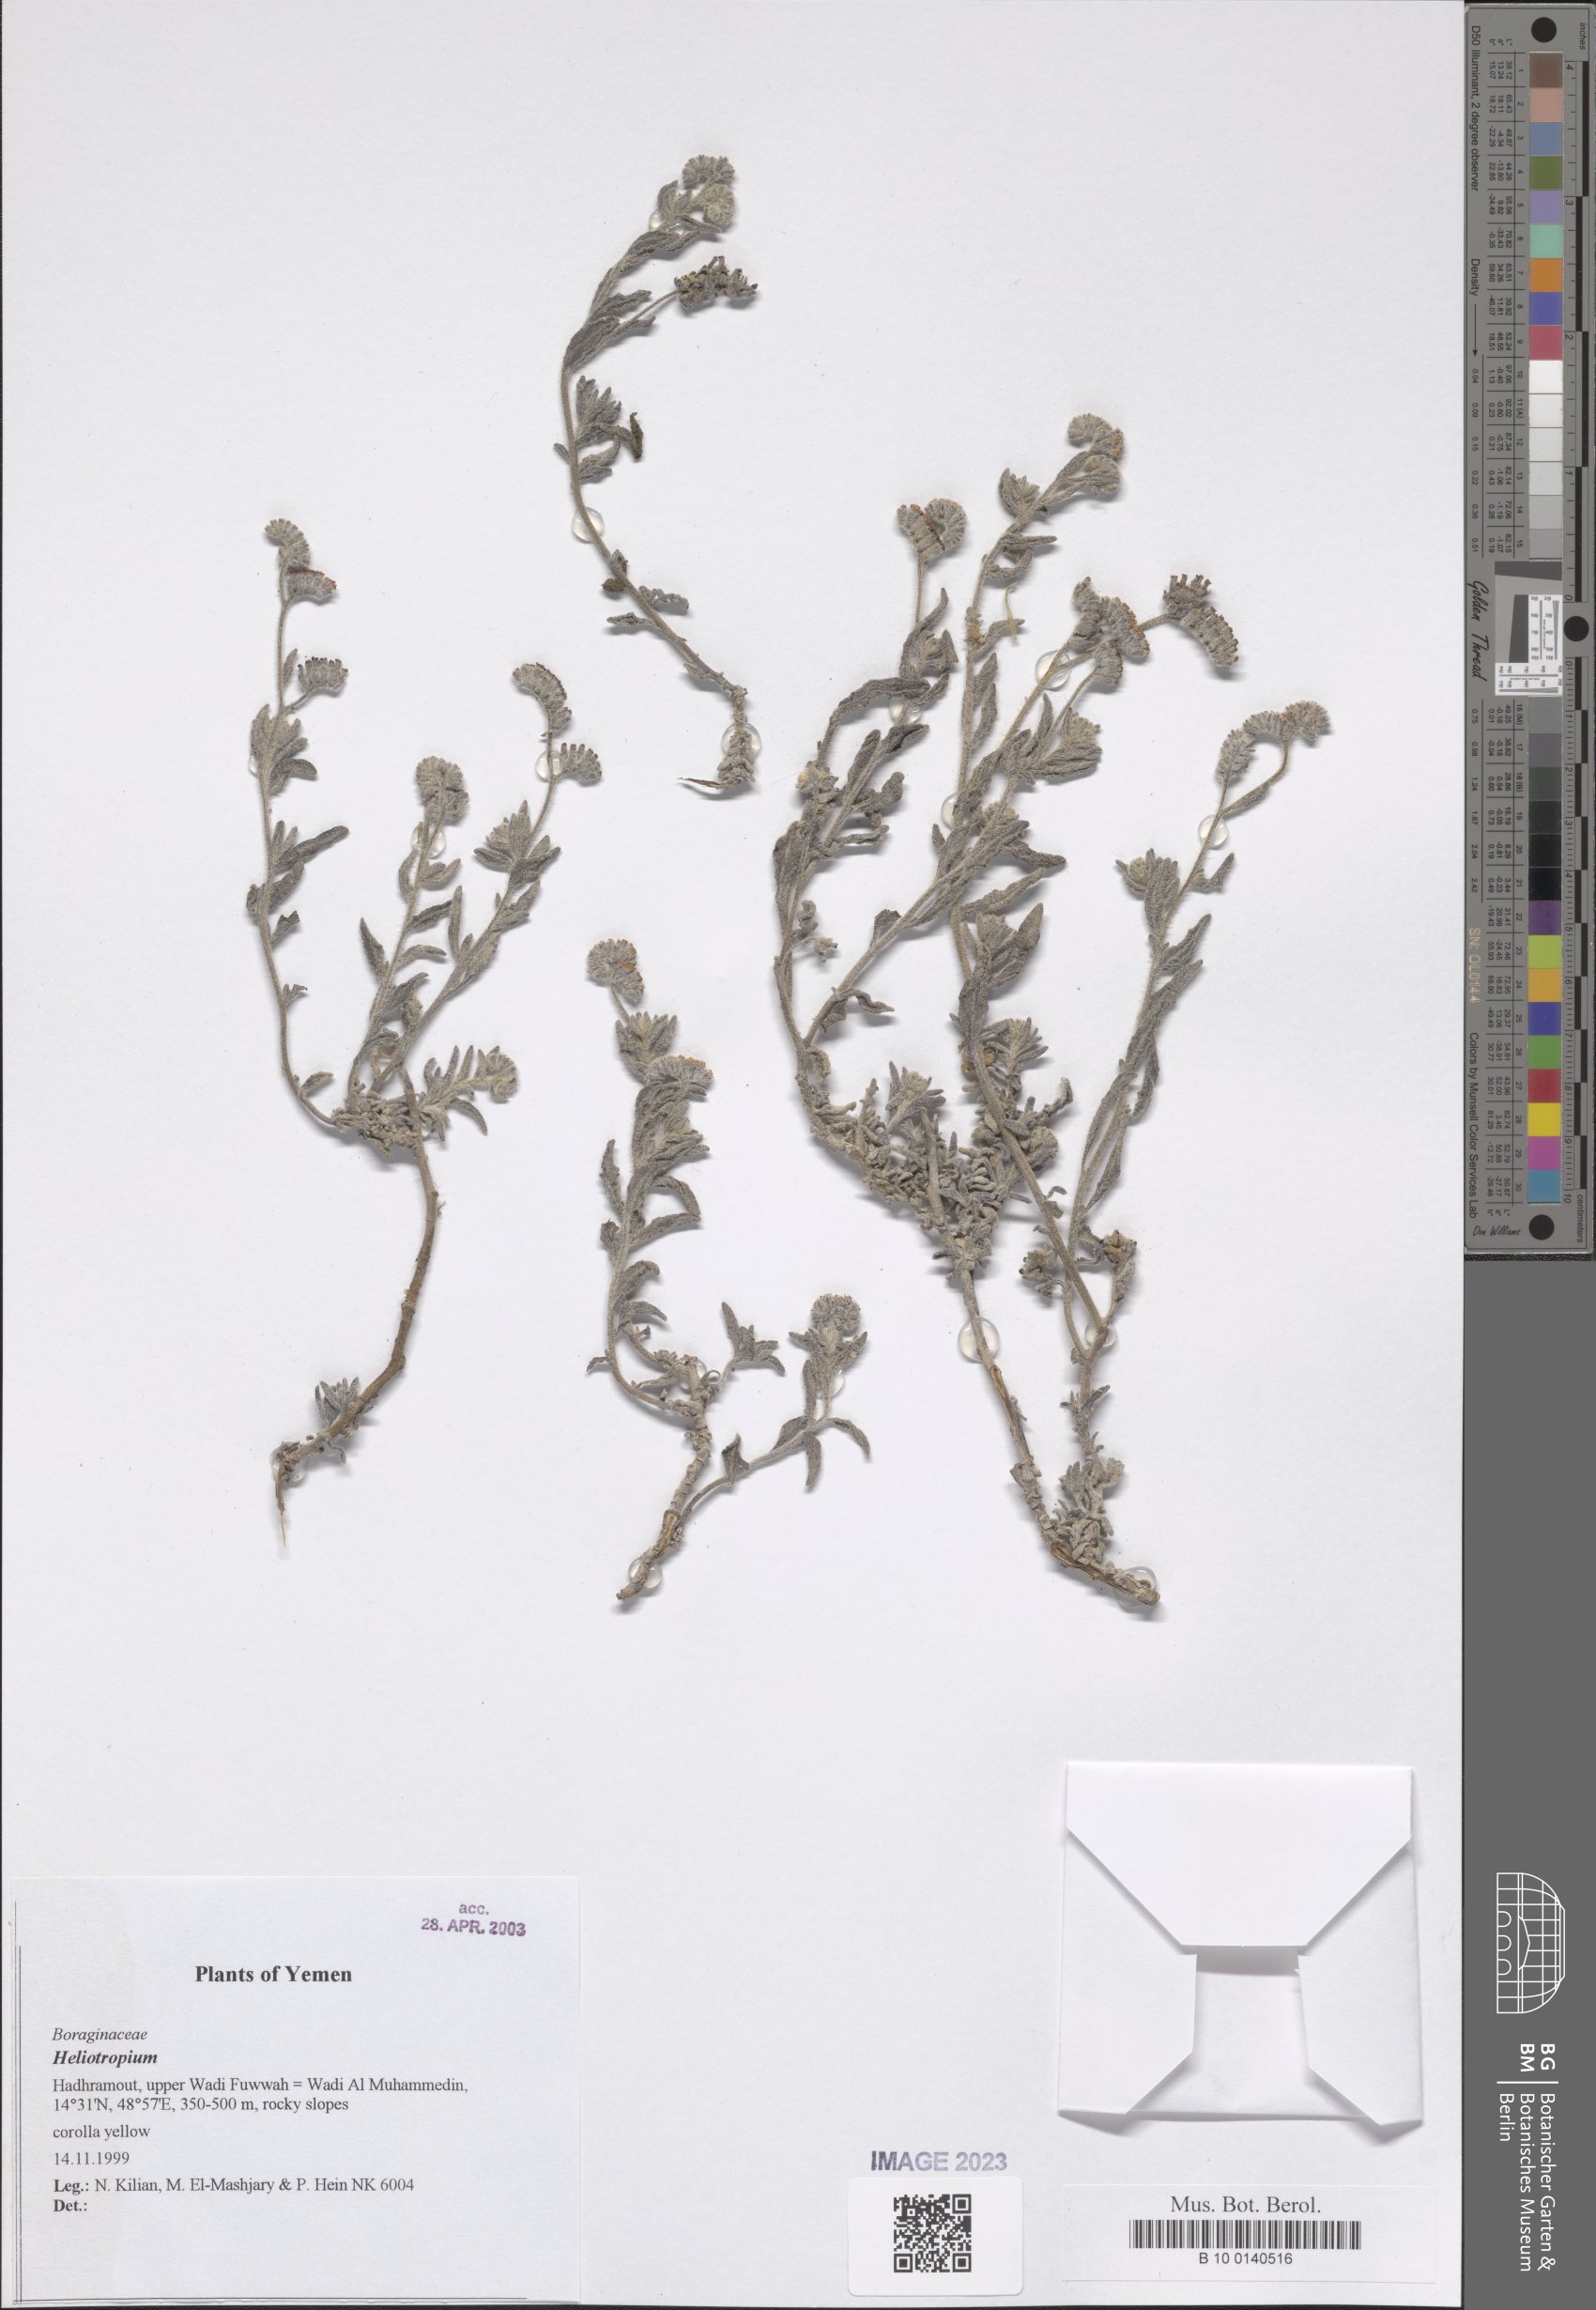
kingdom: Plantae
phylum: Tracheophyta
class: Magnoliopsida
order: Boraginales
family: Heliotropiaceae
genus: Heliotropium
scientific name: Heliotropium
